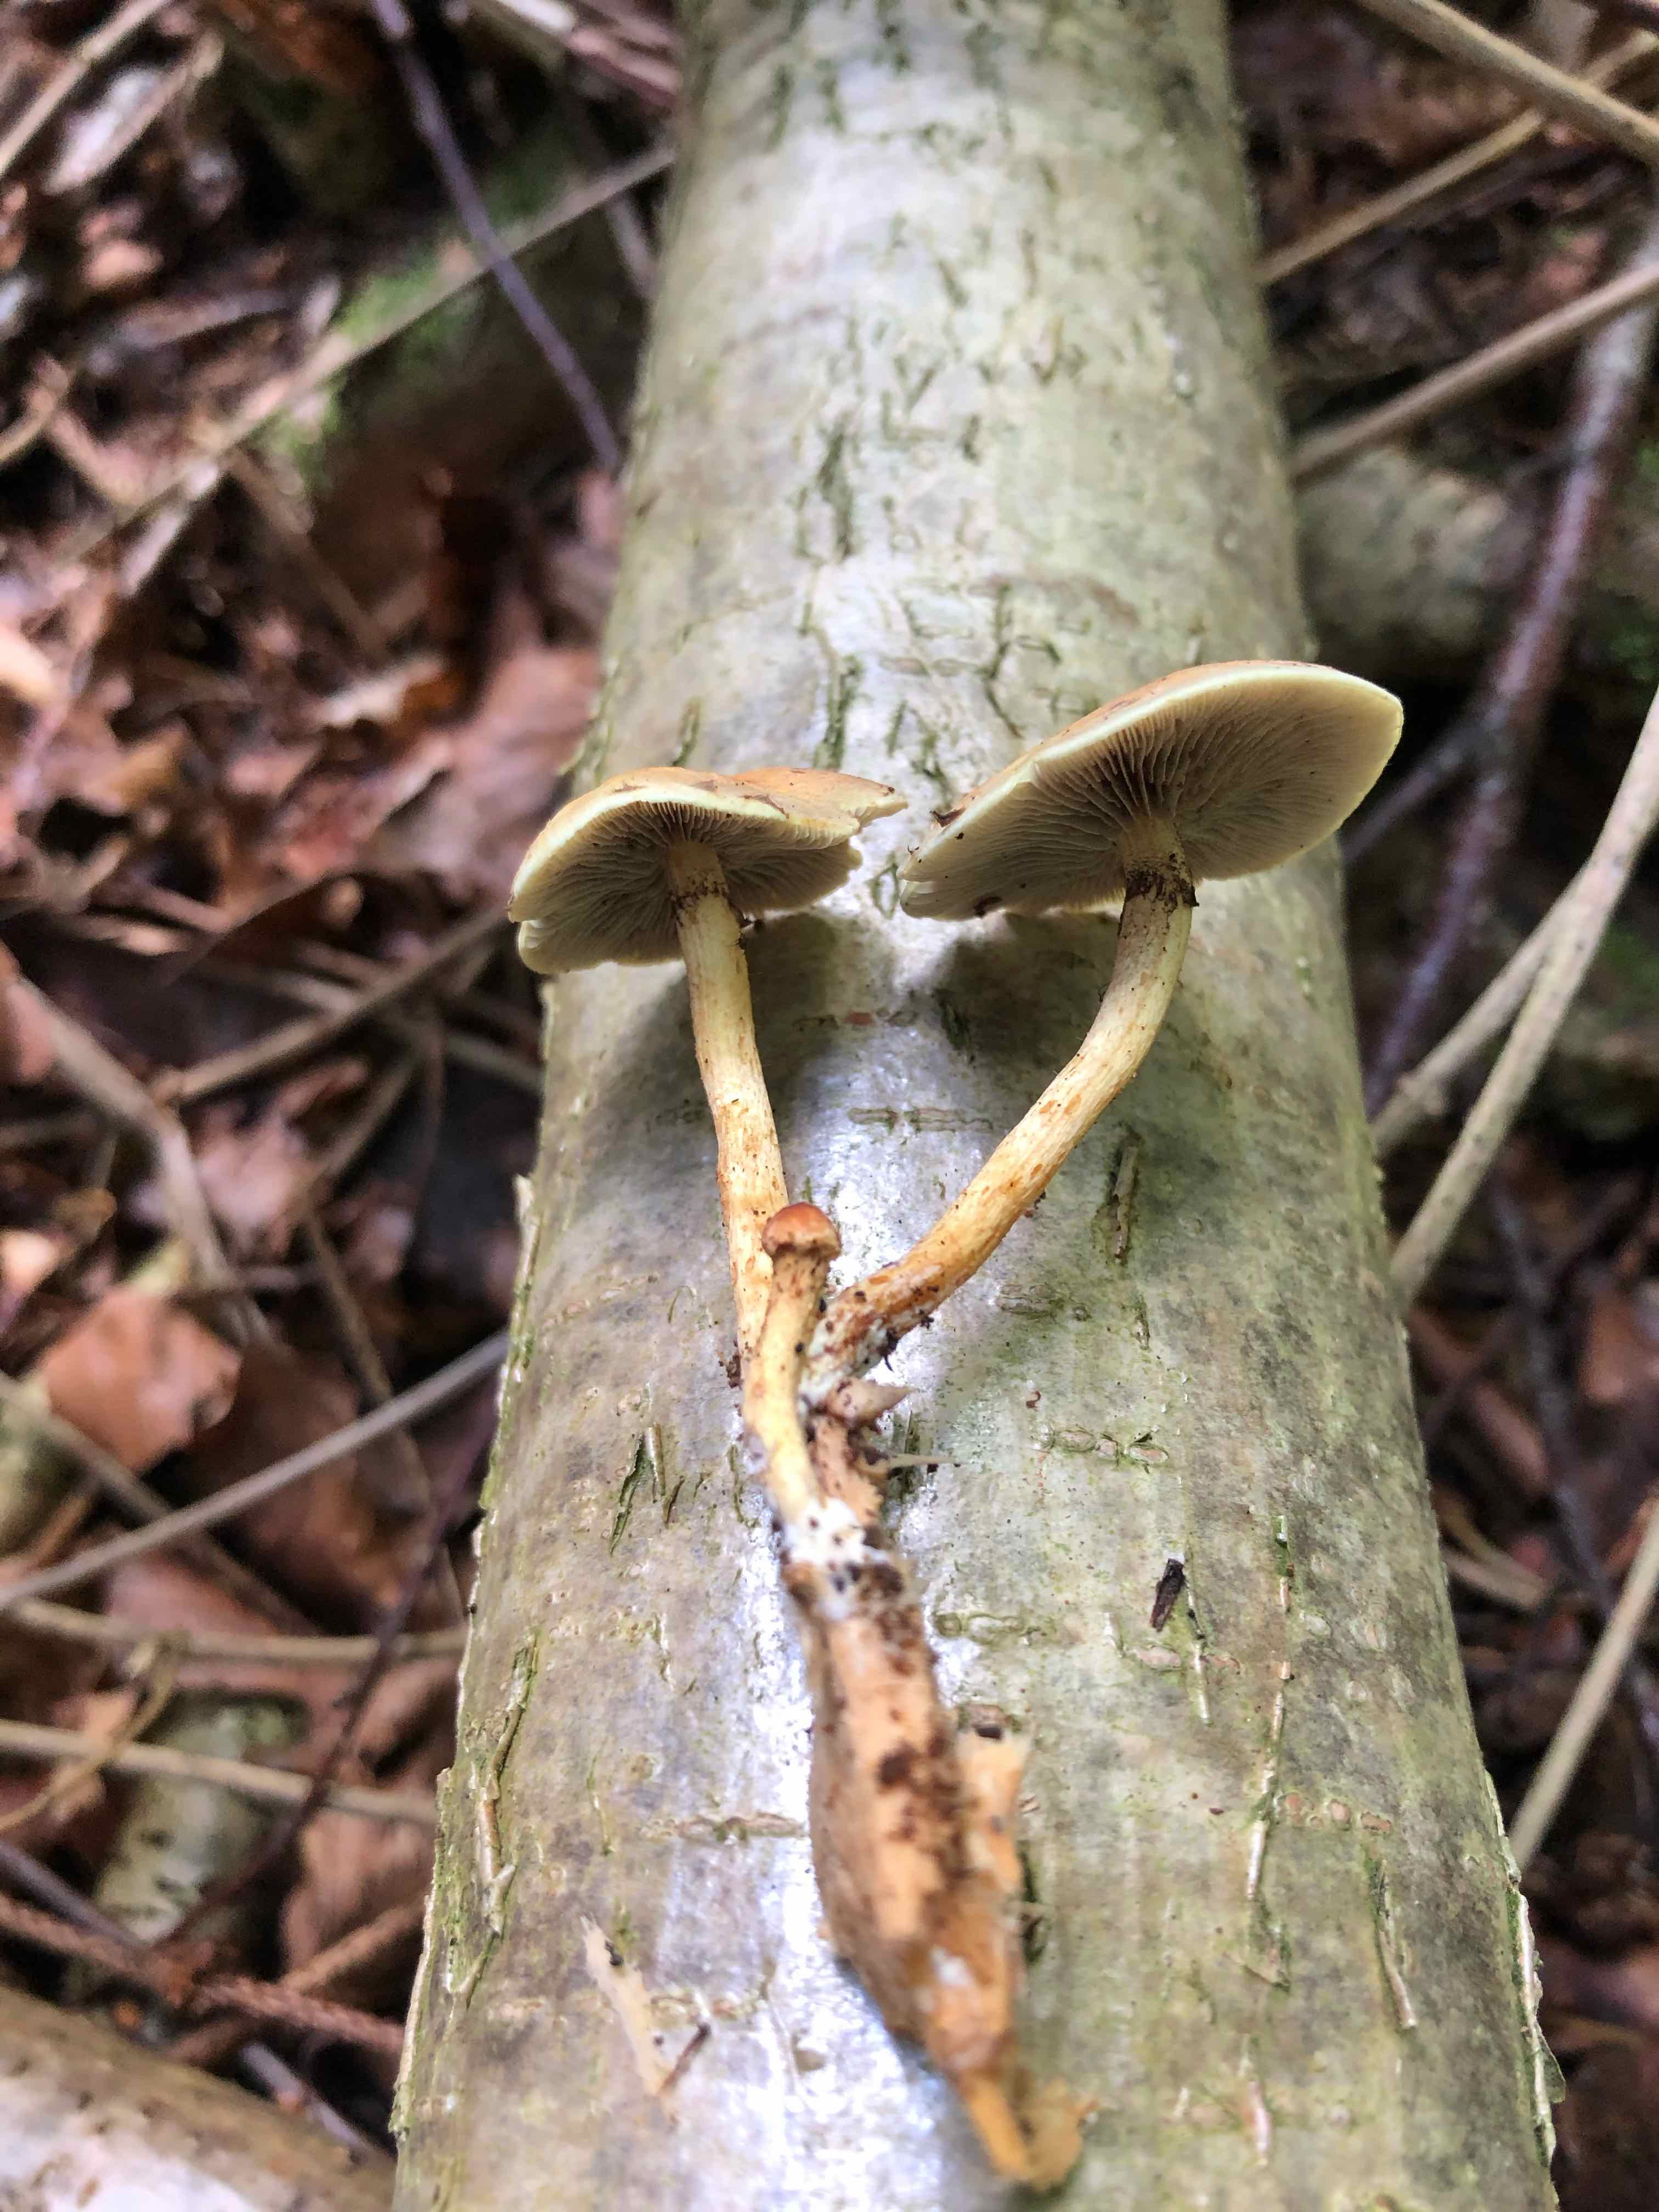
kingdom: Fungi
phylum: Basidiomycota
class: Agaricomycetes
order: Agaricales
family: Strophariaceae
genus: Hypholoma
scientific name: Hypholoma fasciculare
